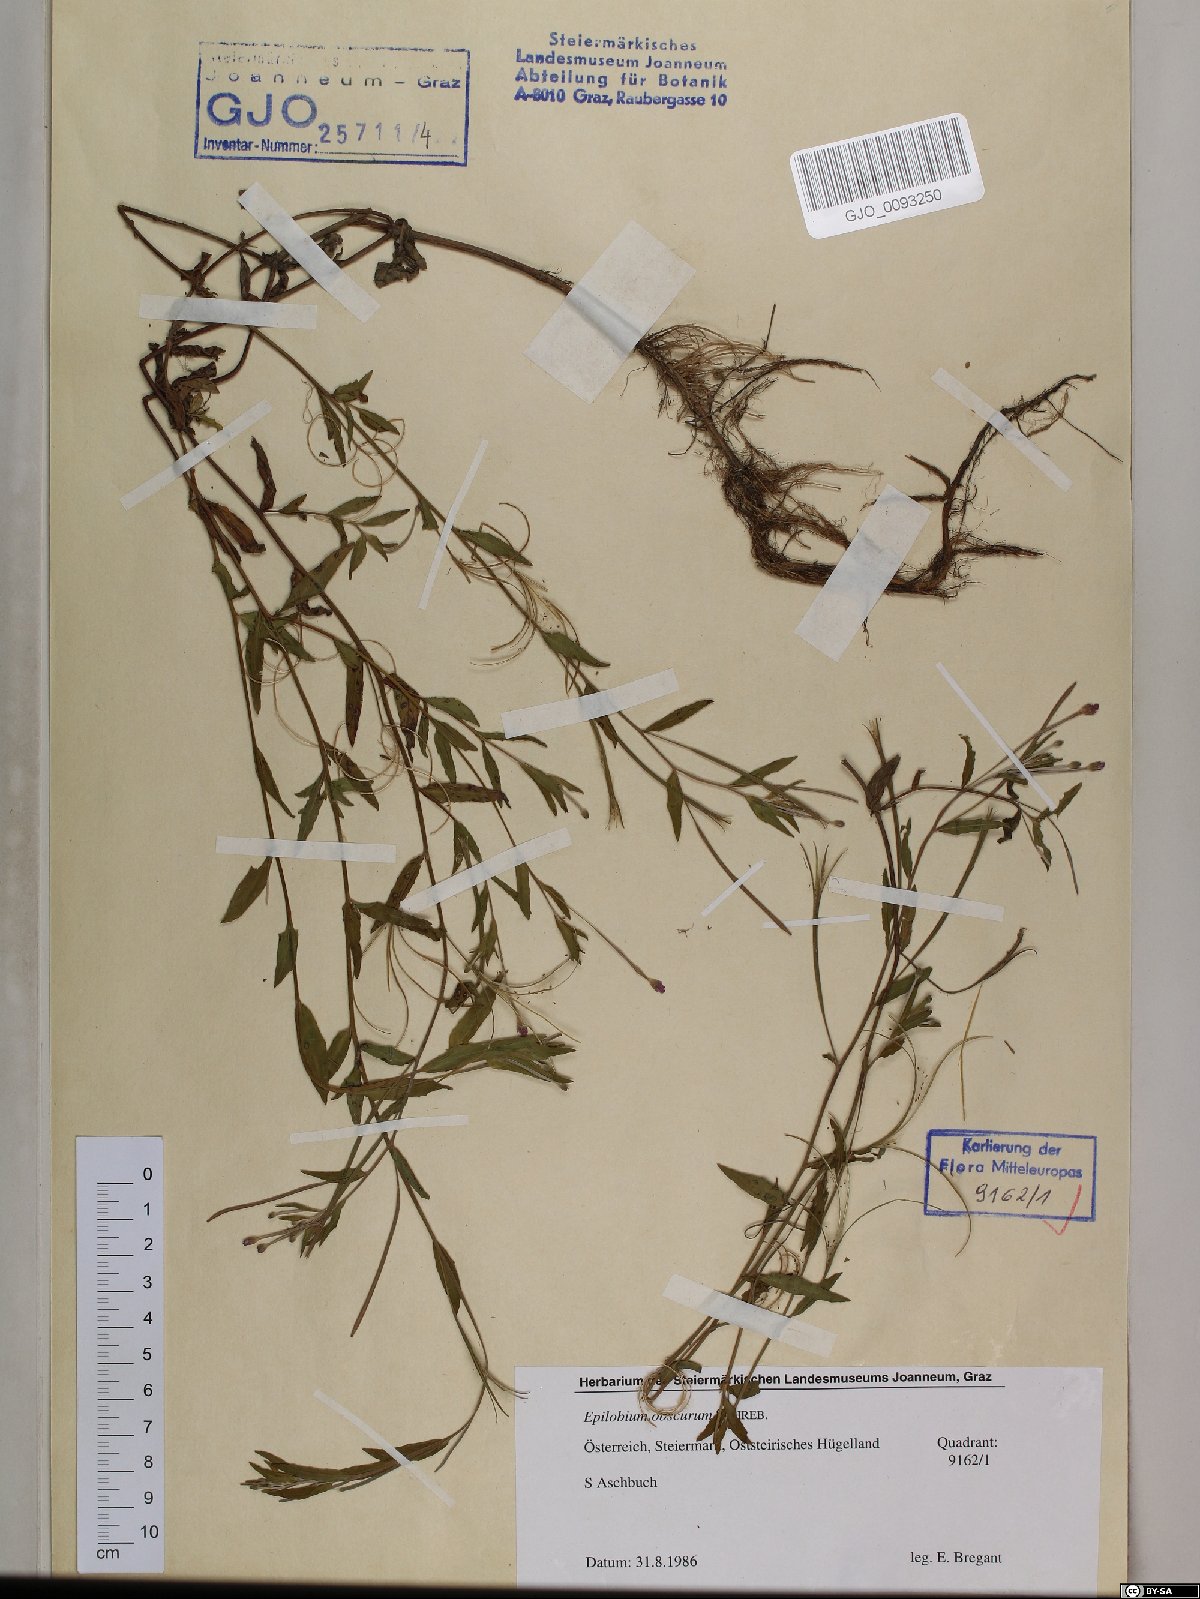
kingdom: Plantae
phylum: Tracheophyta
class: Magnoliopsida
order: Myrtales
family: Onagraceae
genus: Epilobium
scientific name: Epilobium obscurum
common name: Short-fruited willowherb
